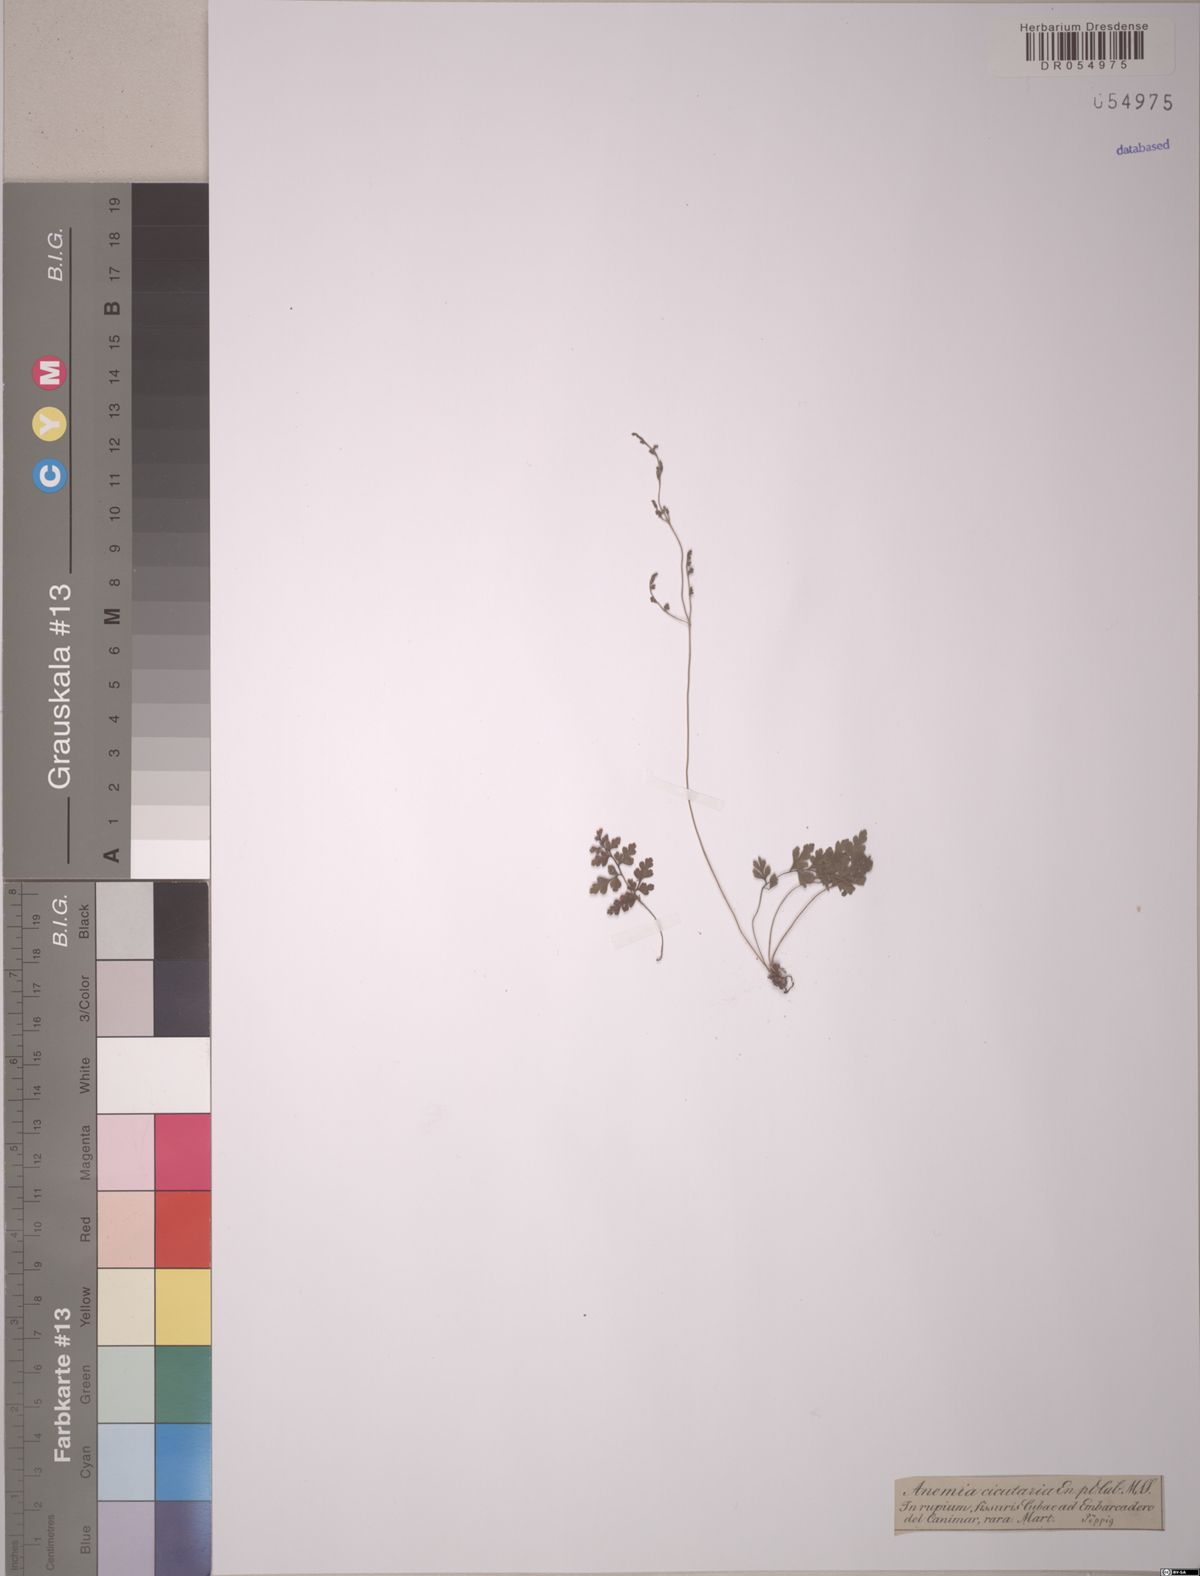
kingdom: Plantae
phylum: Tracheophyta
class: Polypodiopsida
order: Schizaeales
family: Anemiaceae
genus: Anemia
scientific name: Anemia cicutaria
